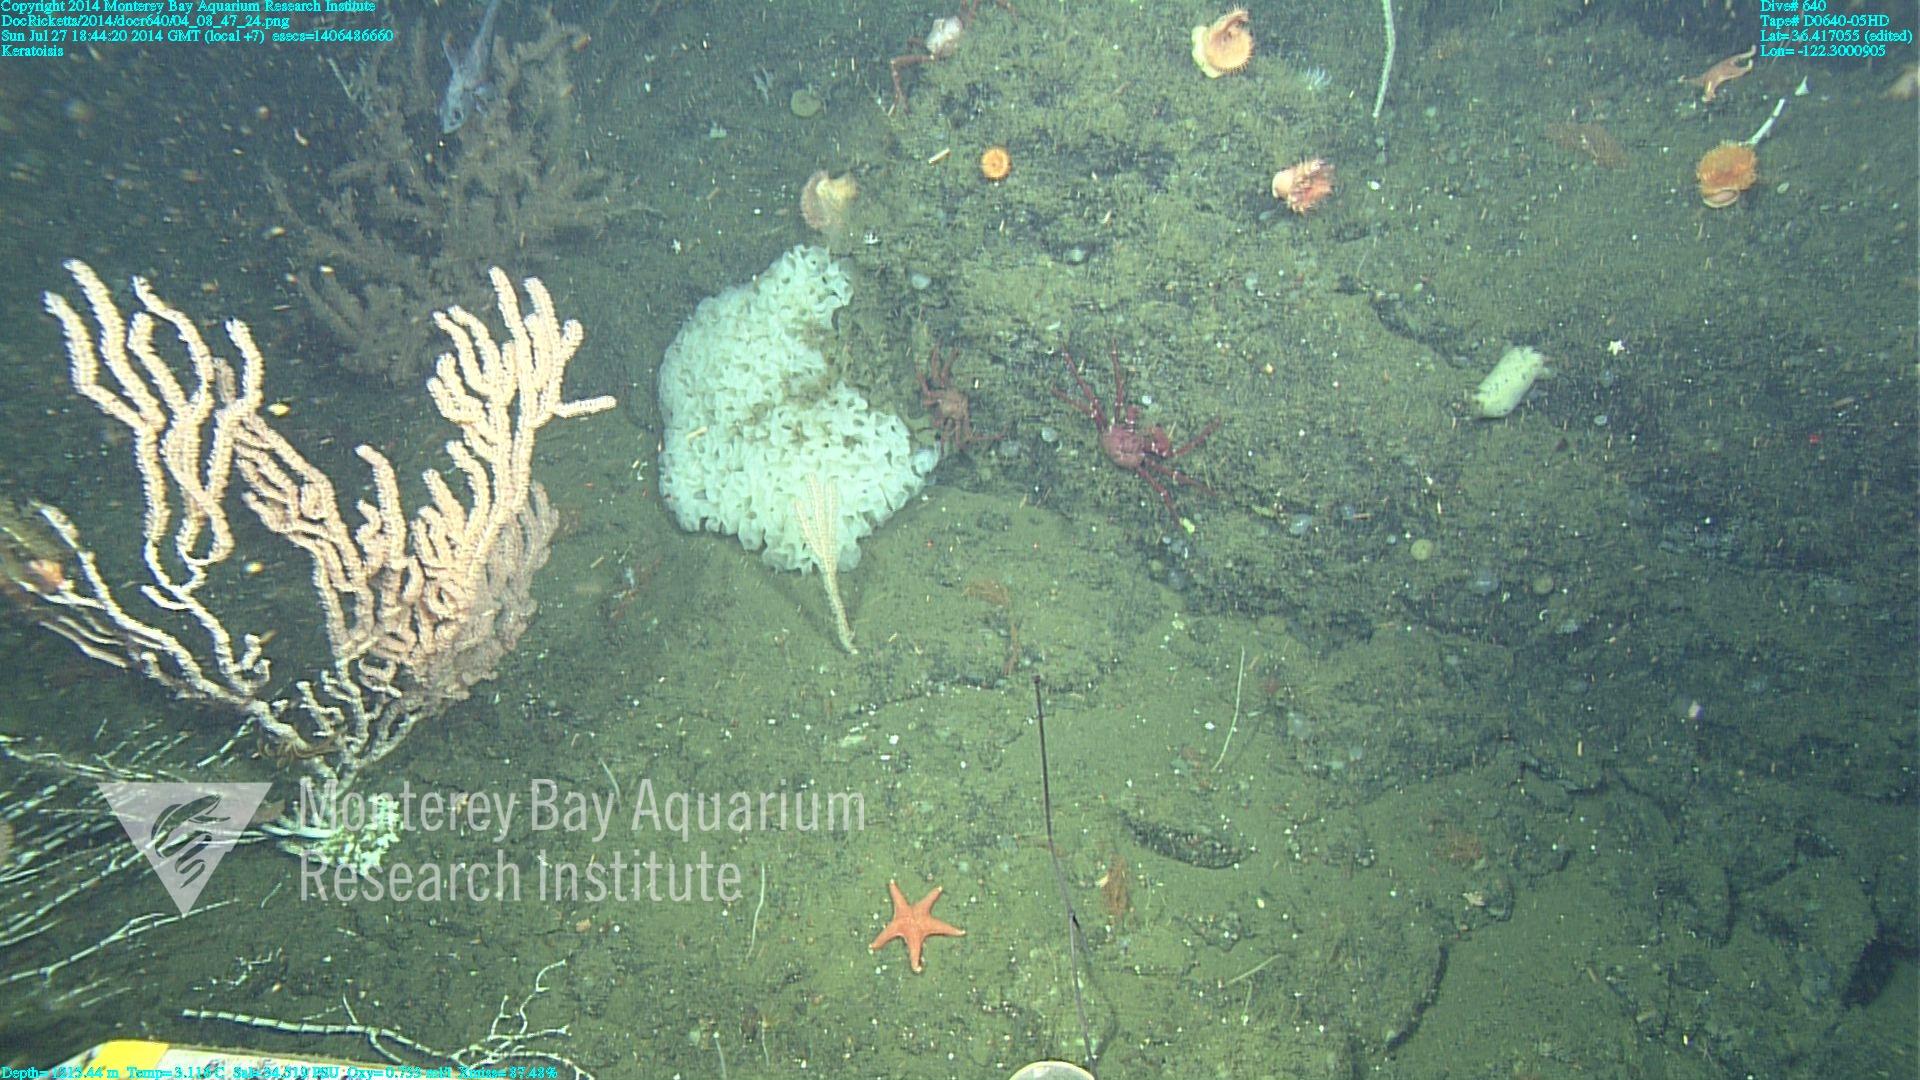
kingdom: Animalia
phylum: Cnidaria
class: Anthozoa
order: Scleralcyonacea
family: Keratoisididae
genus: Keratoisis
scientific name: Keratoisis
